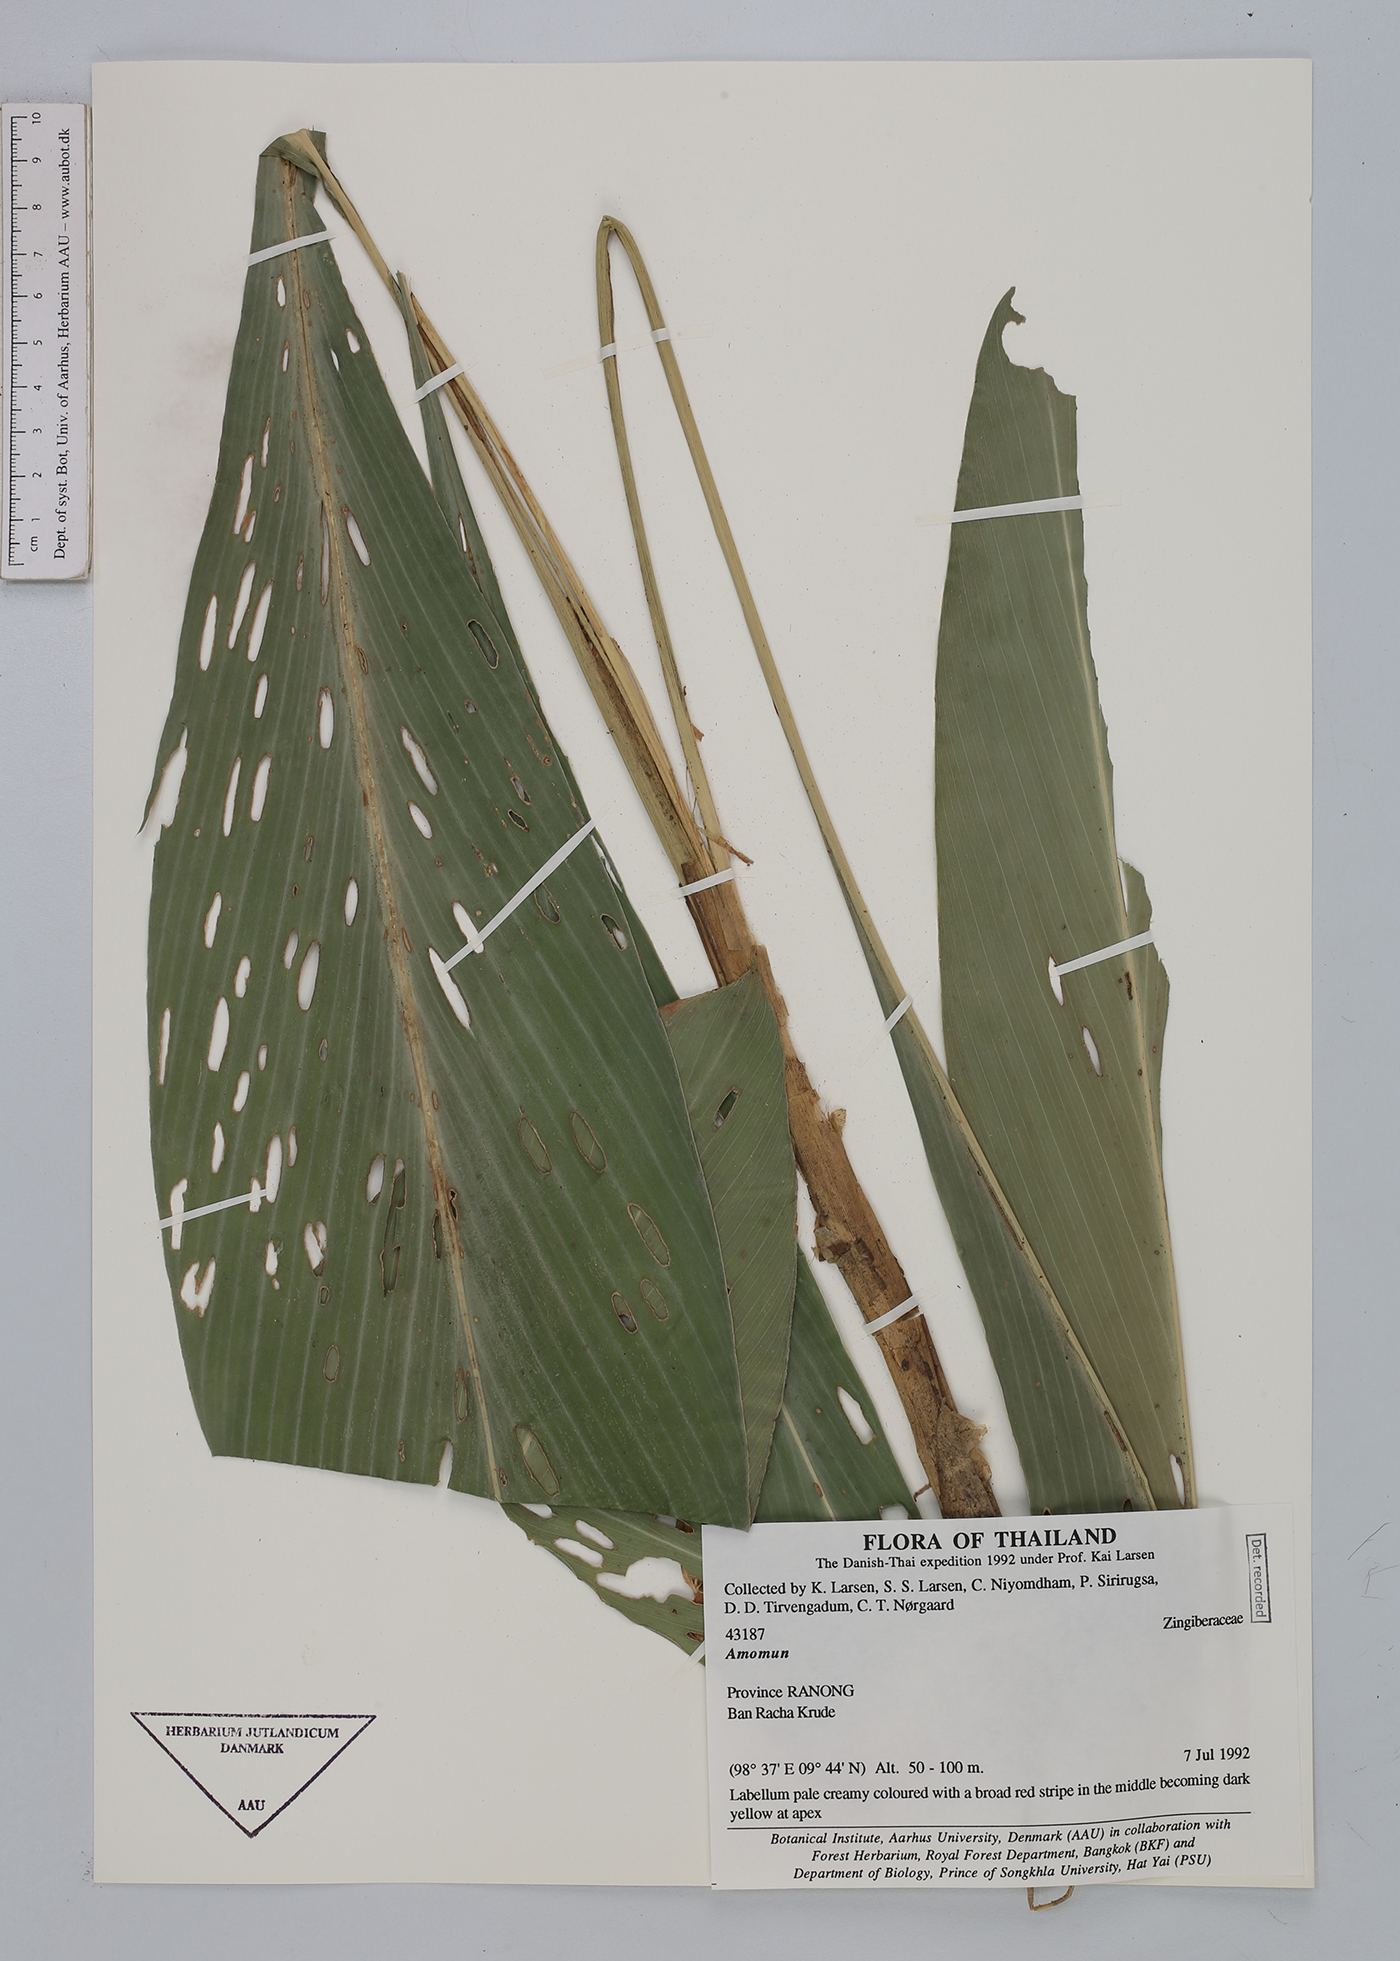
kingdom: Plantae
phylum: Tracheophyta
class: Liliopsida
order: Zingiberales
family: Zingiberaceae
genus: Amomum
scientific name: Amomum
